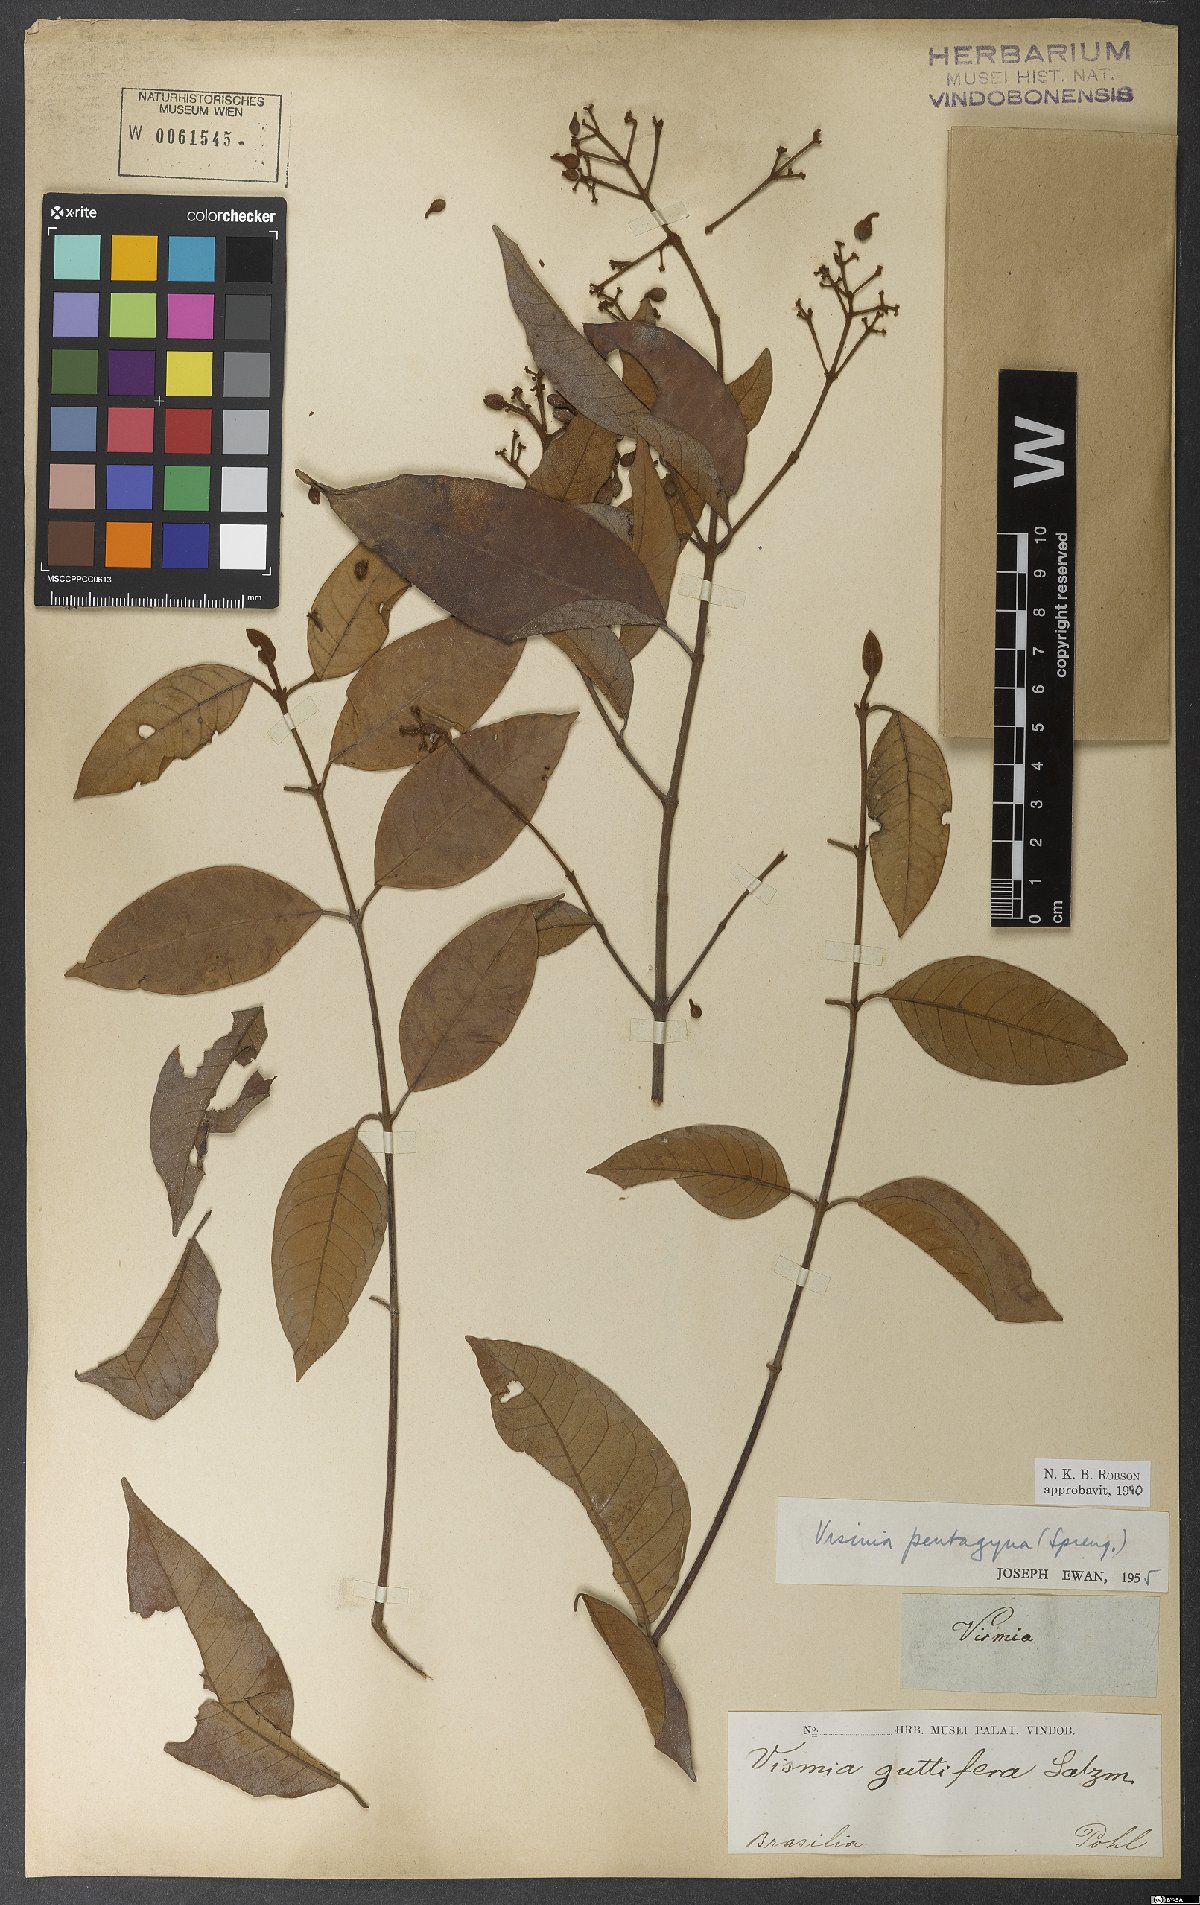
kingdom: Plantae
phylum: Tracheophyta
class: Magnoliopsida
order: Malpighiales
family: Hypericaceae
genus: Vismia
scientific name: Vismia pentagyna
